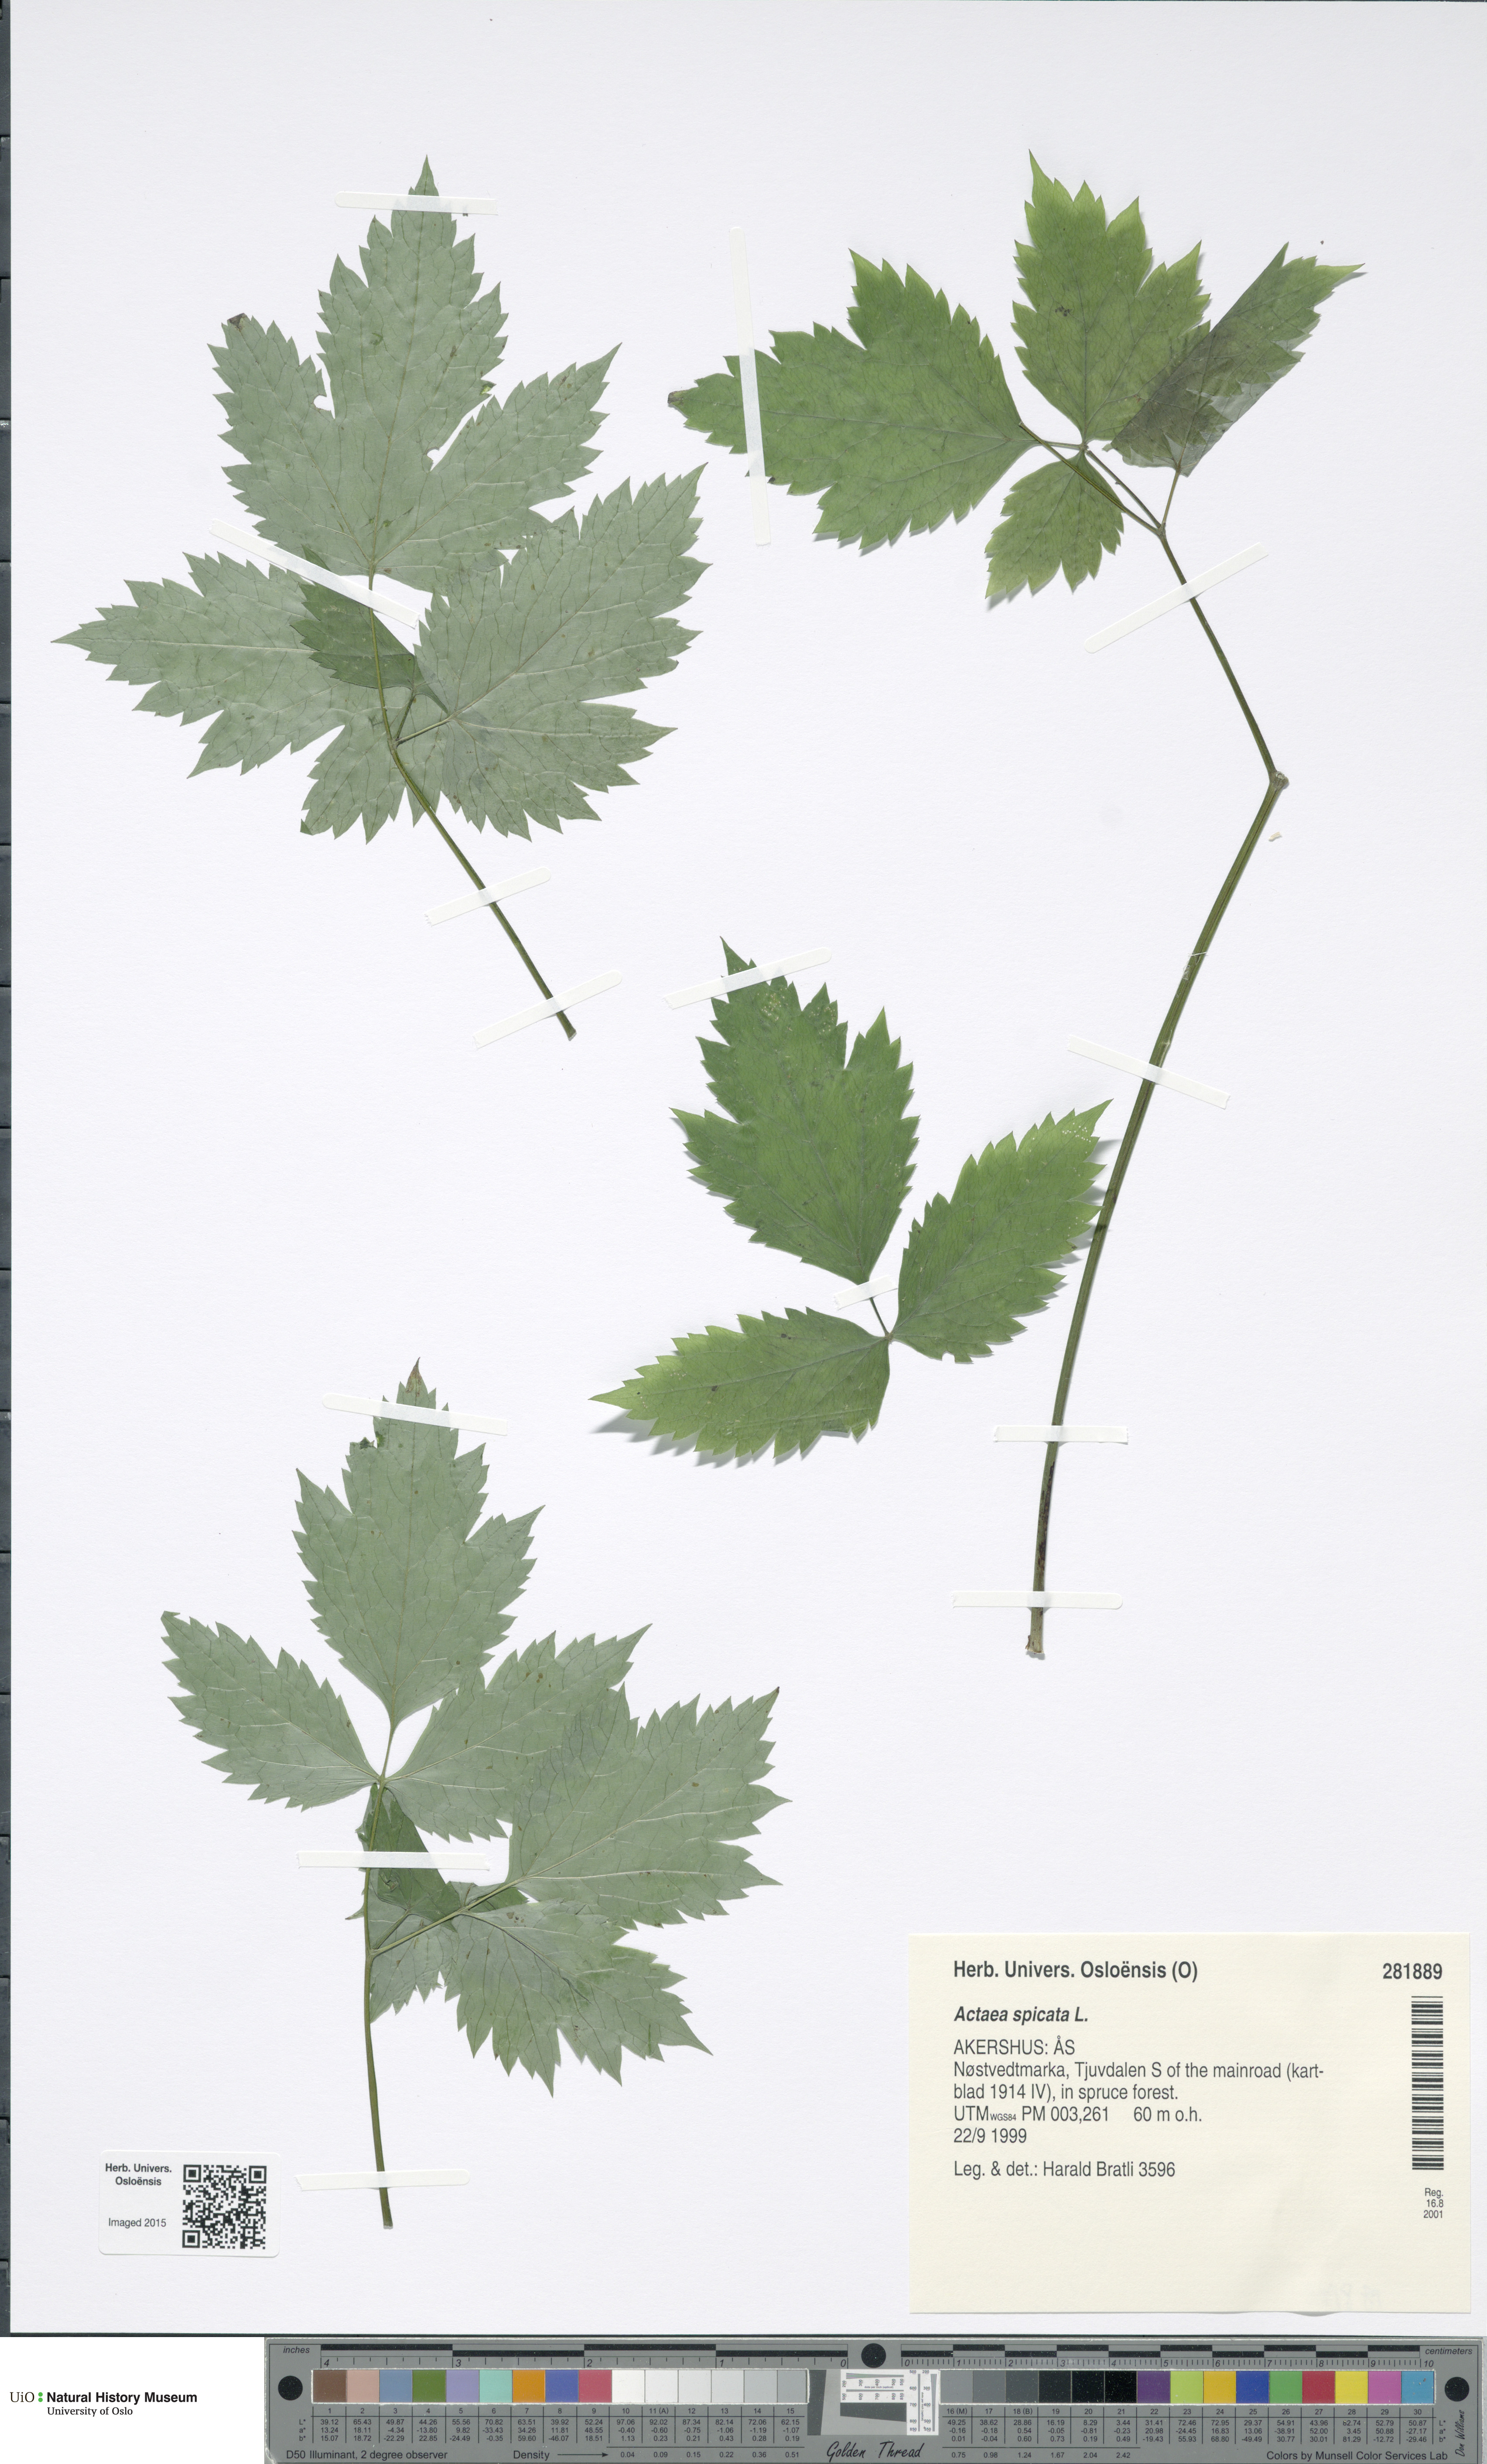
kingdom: Plantae
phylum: Tracheophyta
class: Magnoliopsida
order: Ranunculales
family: Ranunculaceae
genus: Actaea
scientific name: Actaea spicata
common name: Baneberry
